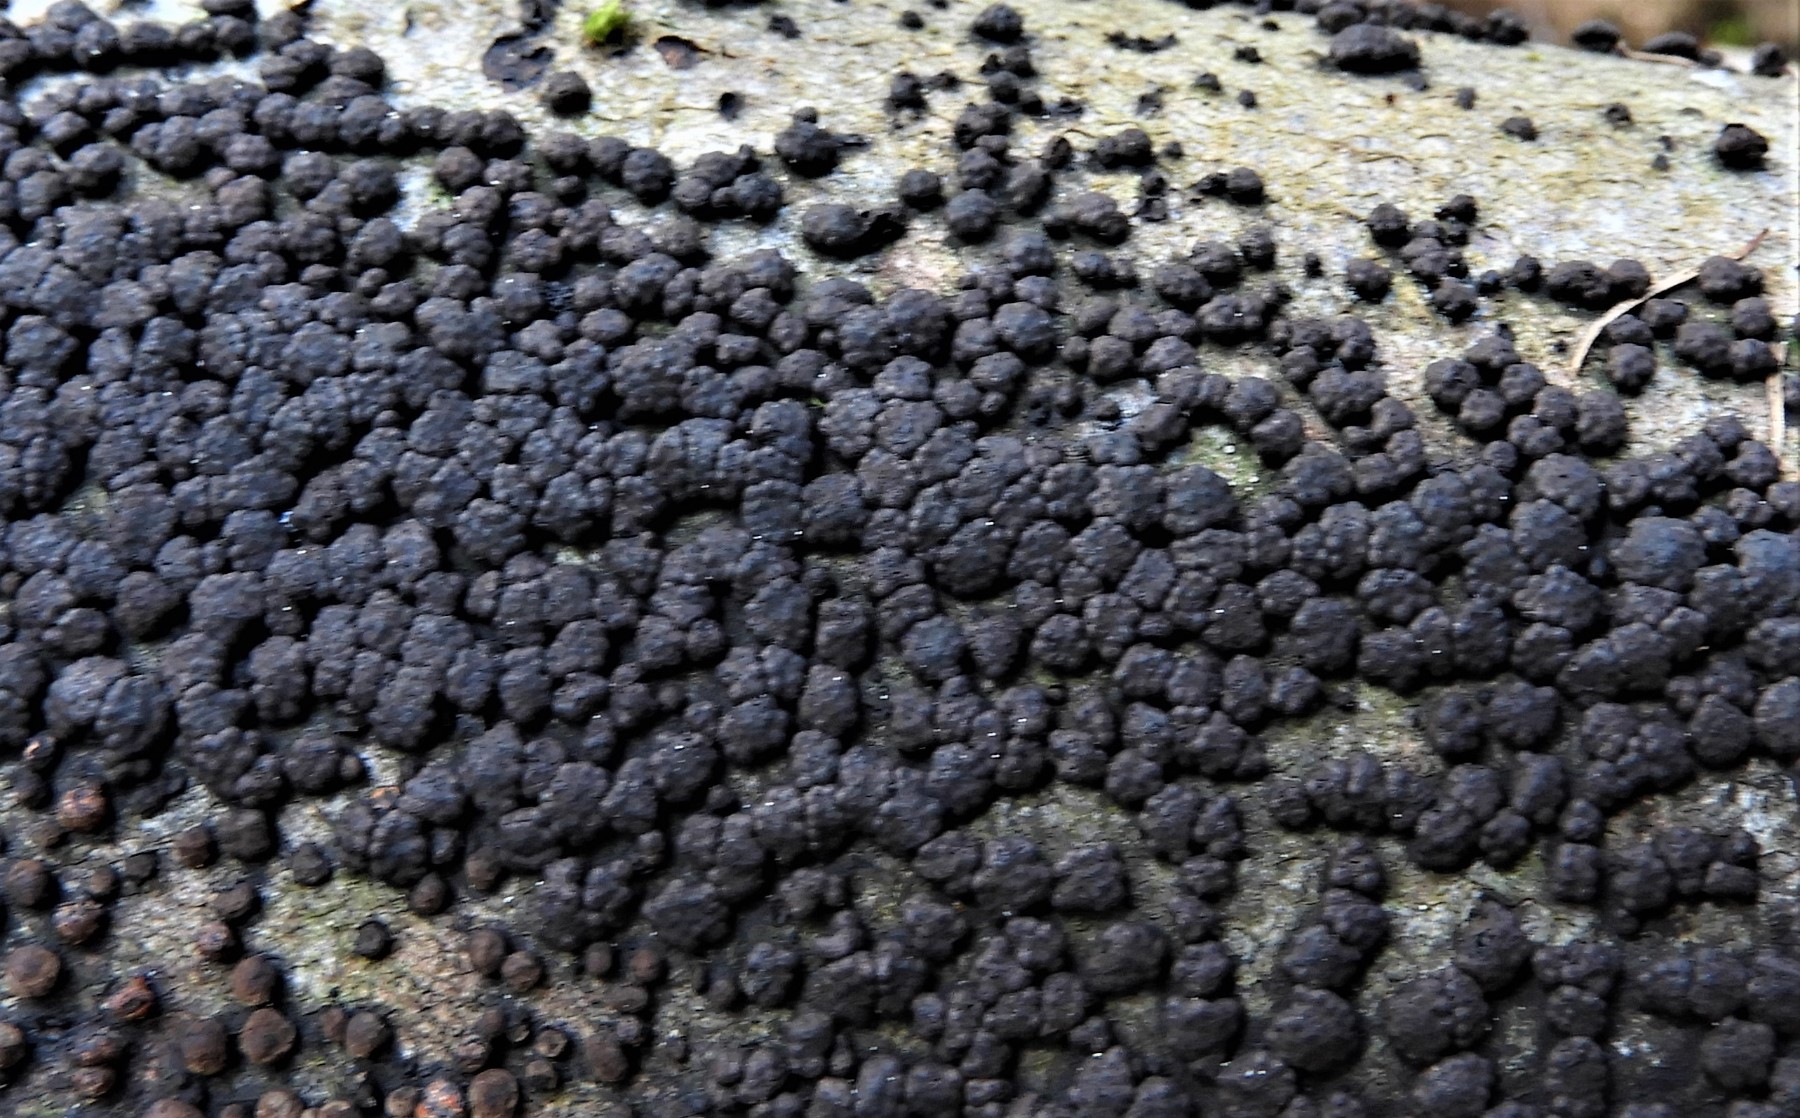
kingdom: Fungi
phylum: Ascomycota
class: Sordariomycetes
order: Xylariales
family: Hypoxylaceae
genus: Jackrogersella
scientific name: Jackrogersella cohaerens
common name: sammenflydende kulbær
